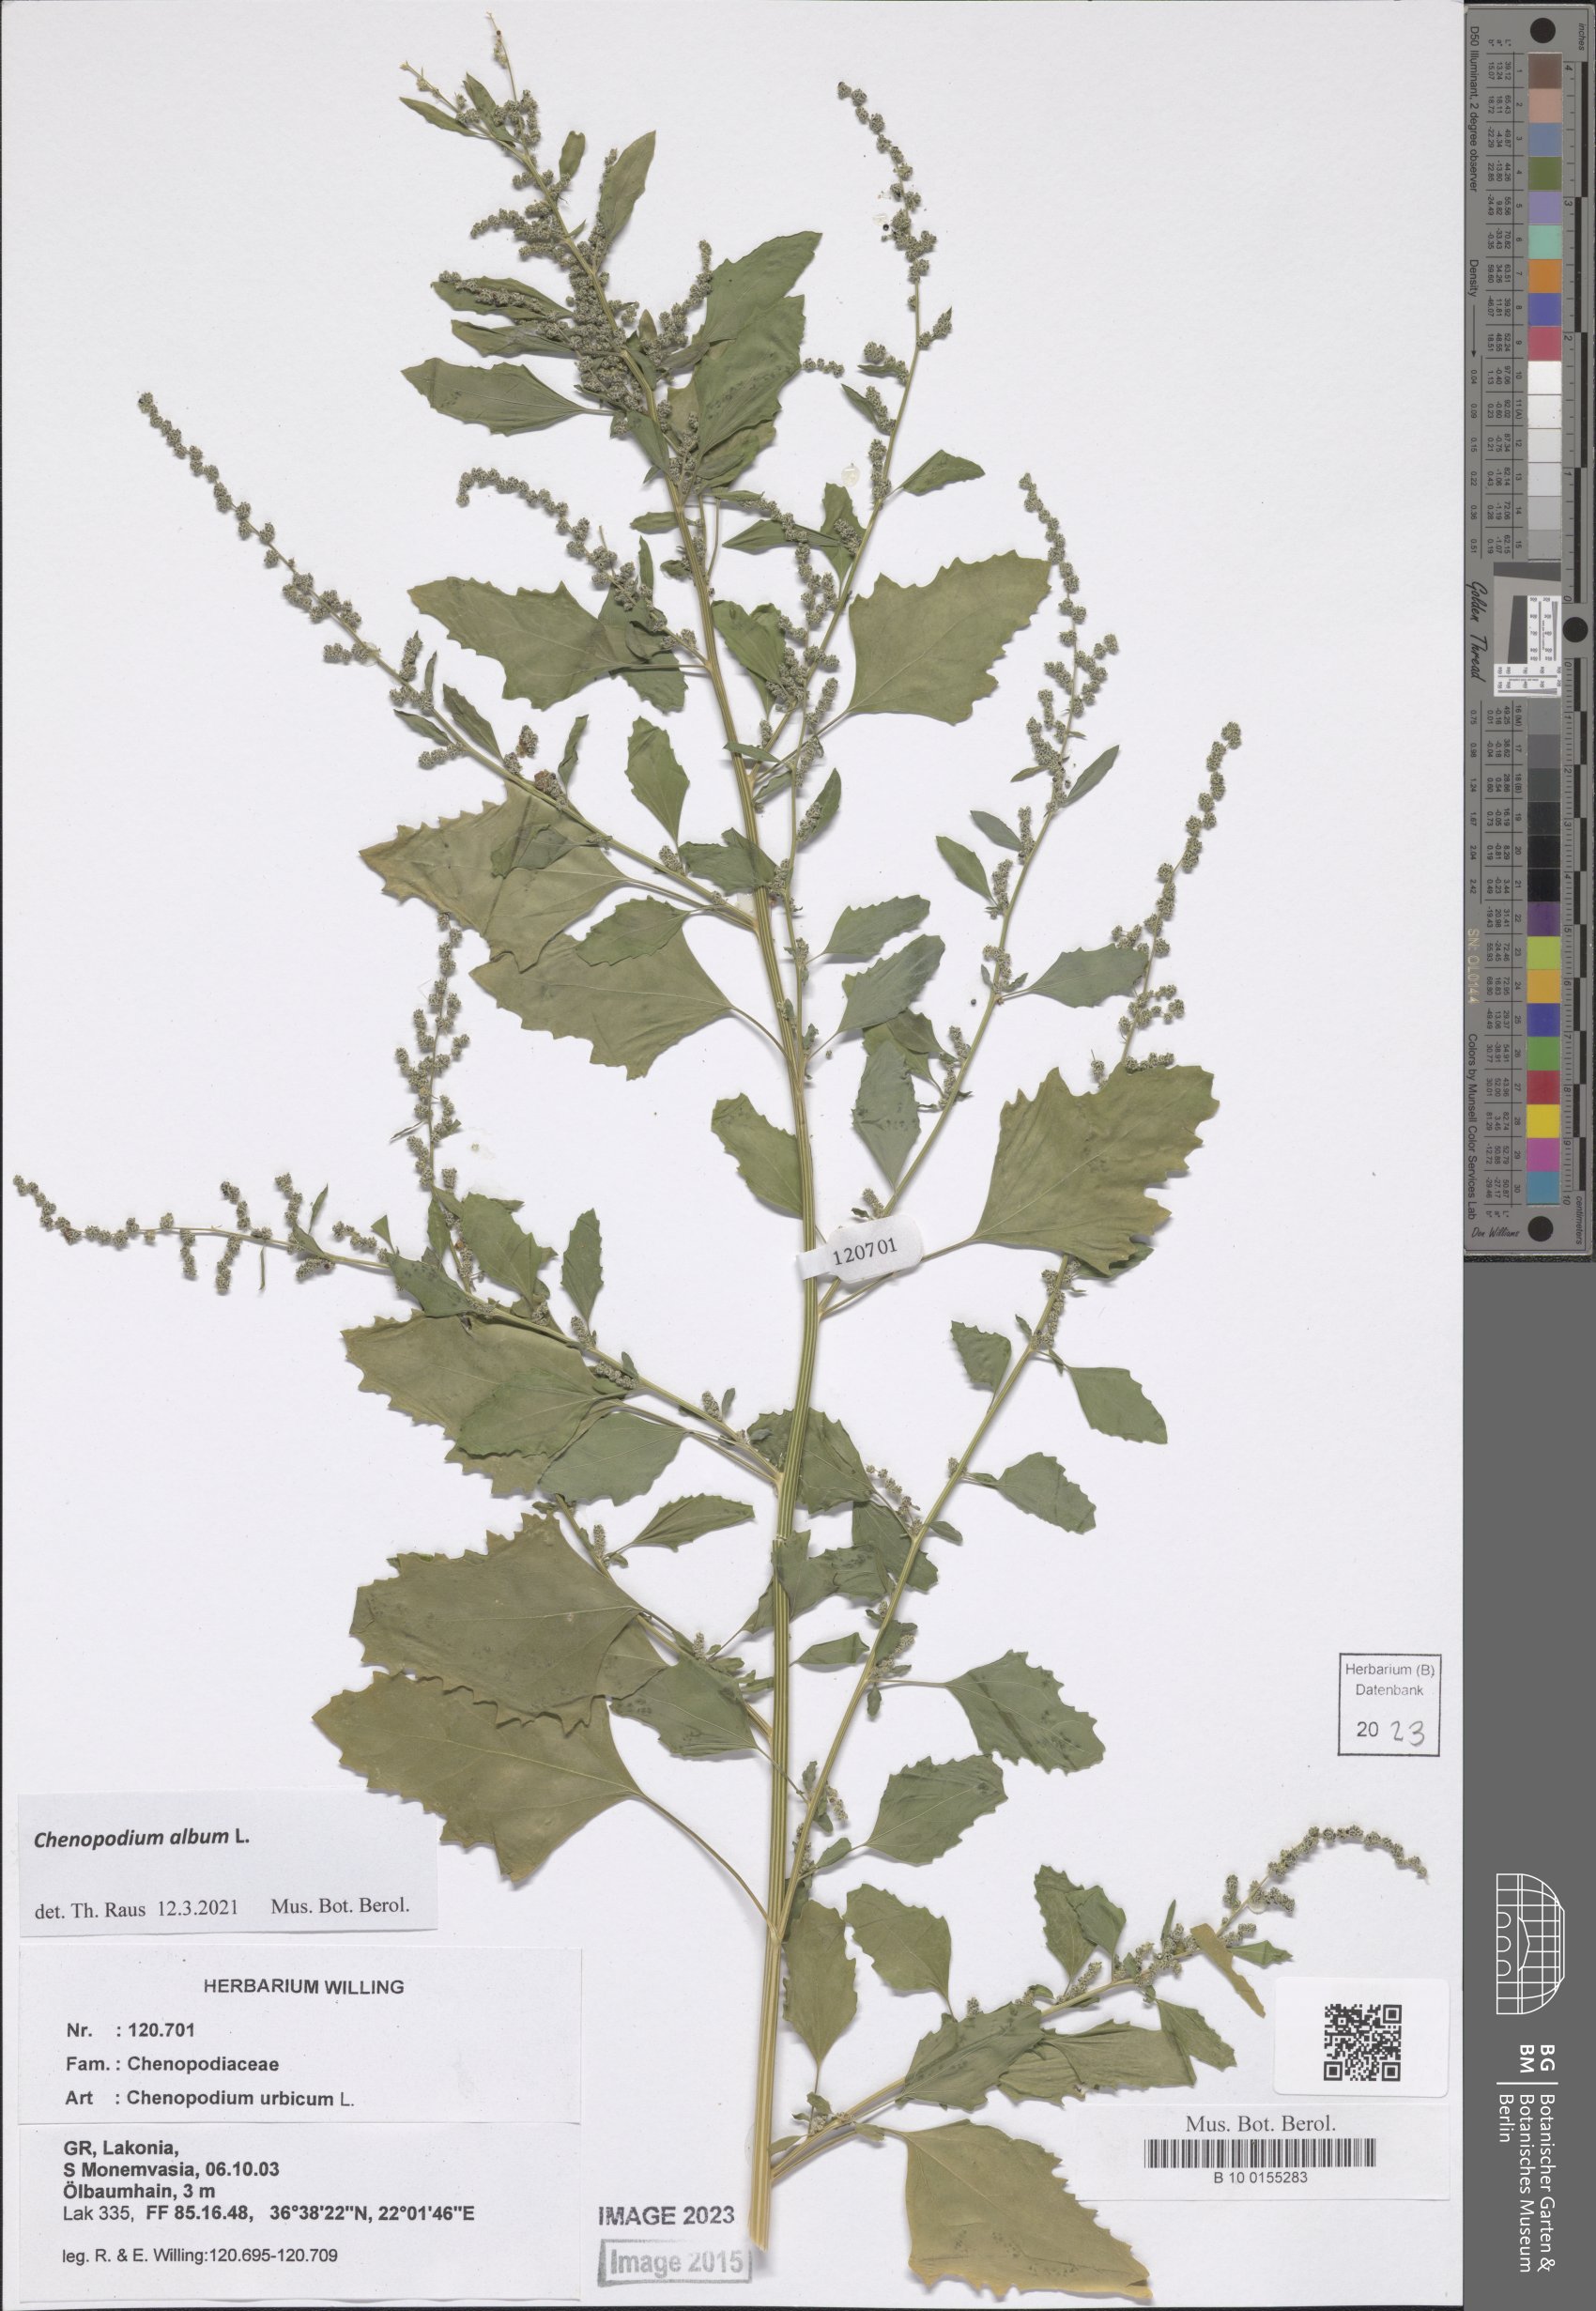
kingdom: Plantae
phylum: Tracheophyta
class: Magnoliopsida
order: Caryophyllales
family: Amaranthaceae
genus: Chenopodium
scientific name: Chenopodium album
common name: Fat-hen
